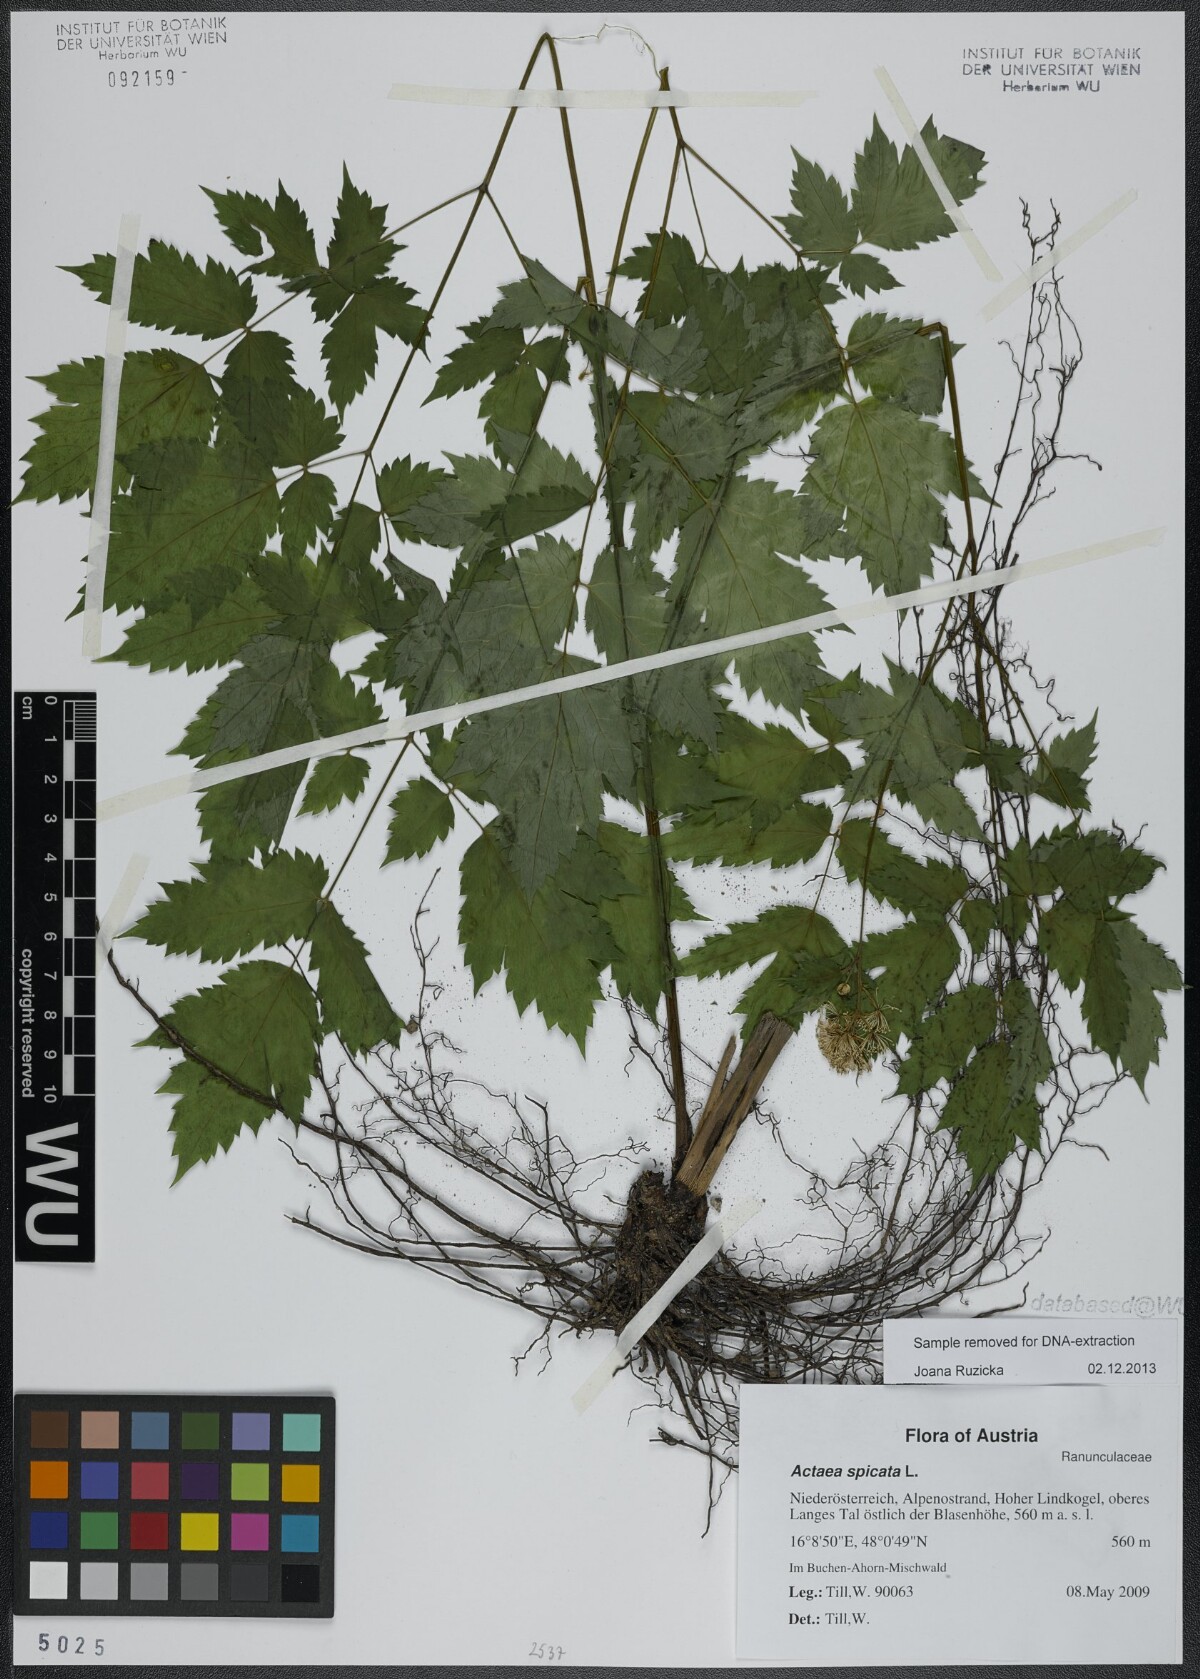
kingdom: Plantae
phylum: Tracheophyta
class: Magnoliopsida
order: Ranunculales
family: Ranunculaceae
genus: Actaea
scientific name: Actaea spicata
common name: Baneberry
